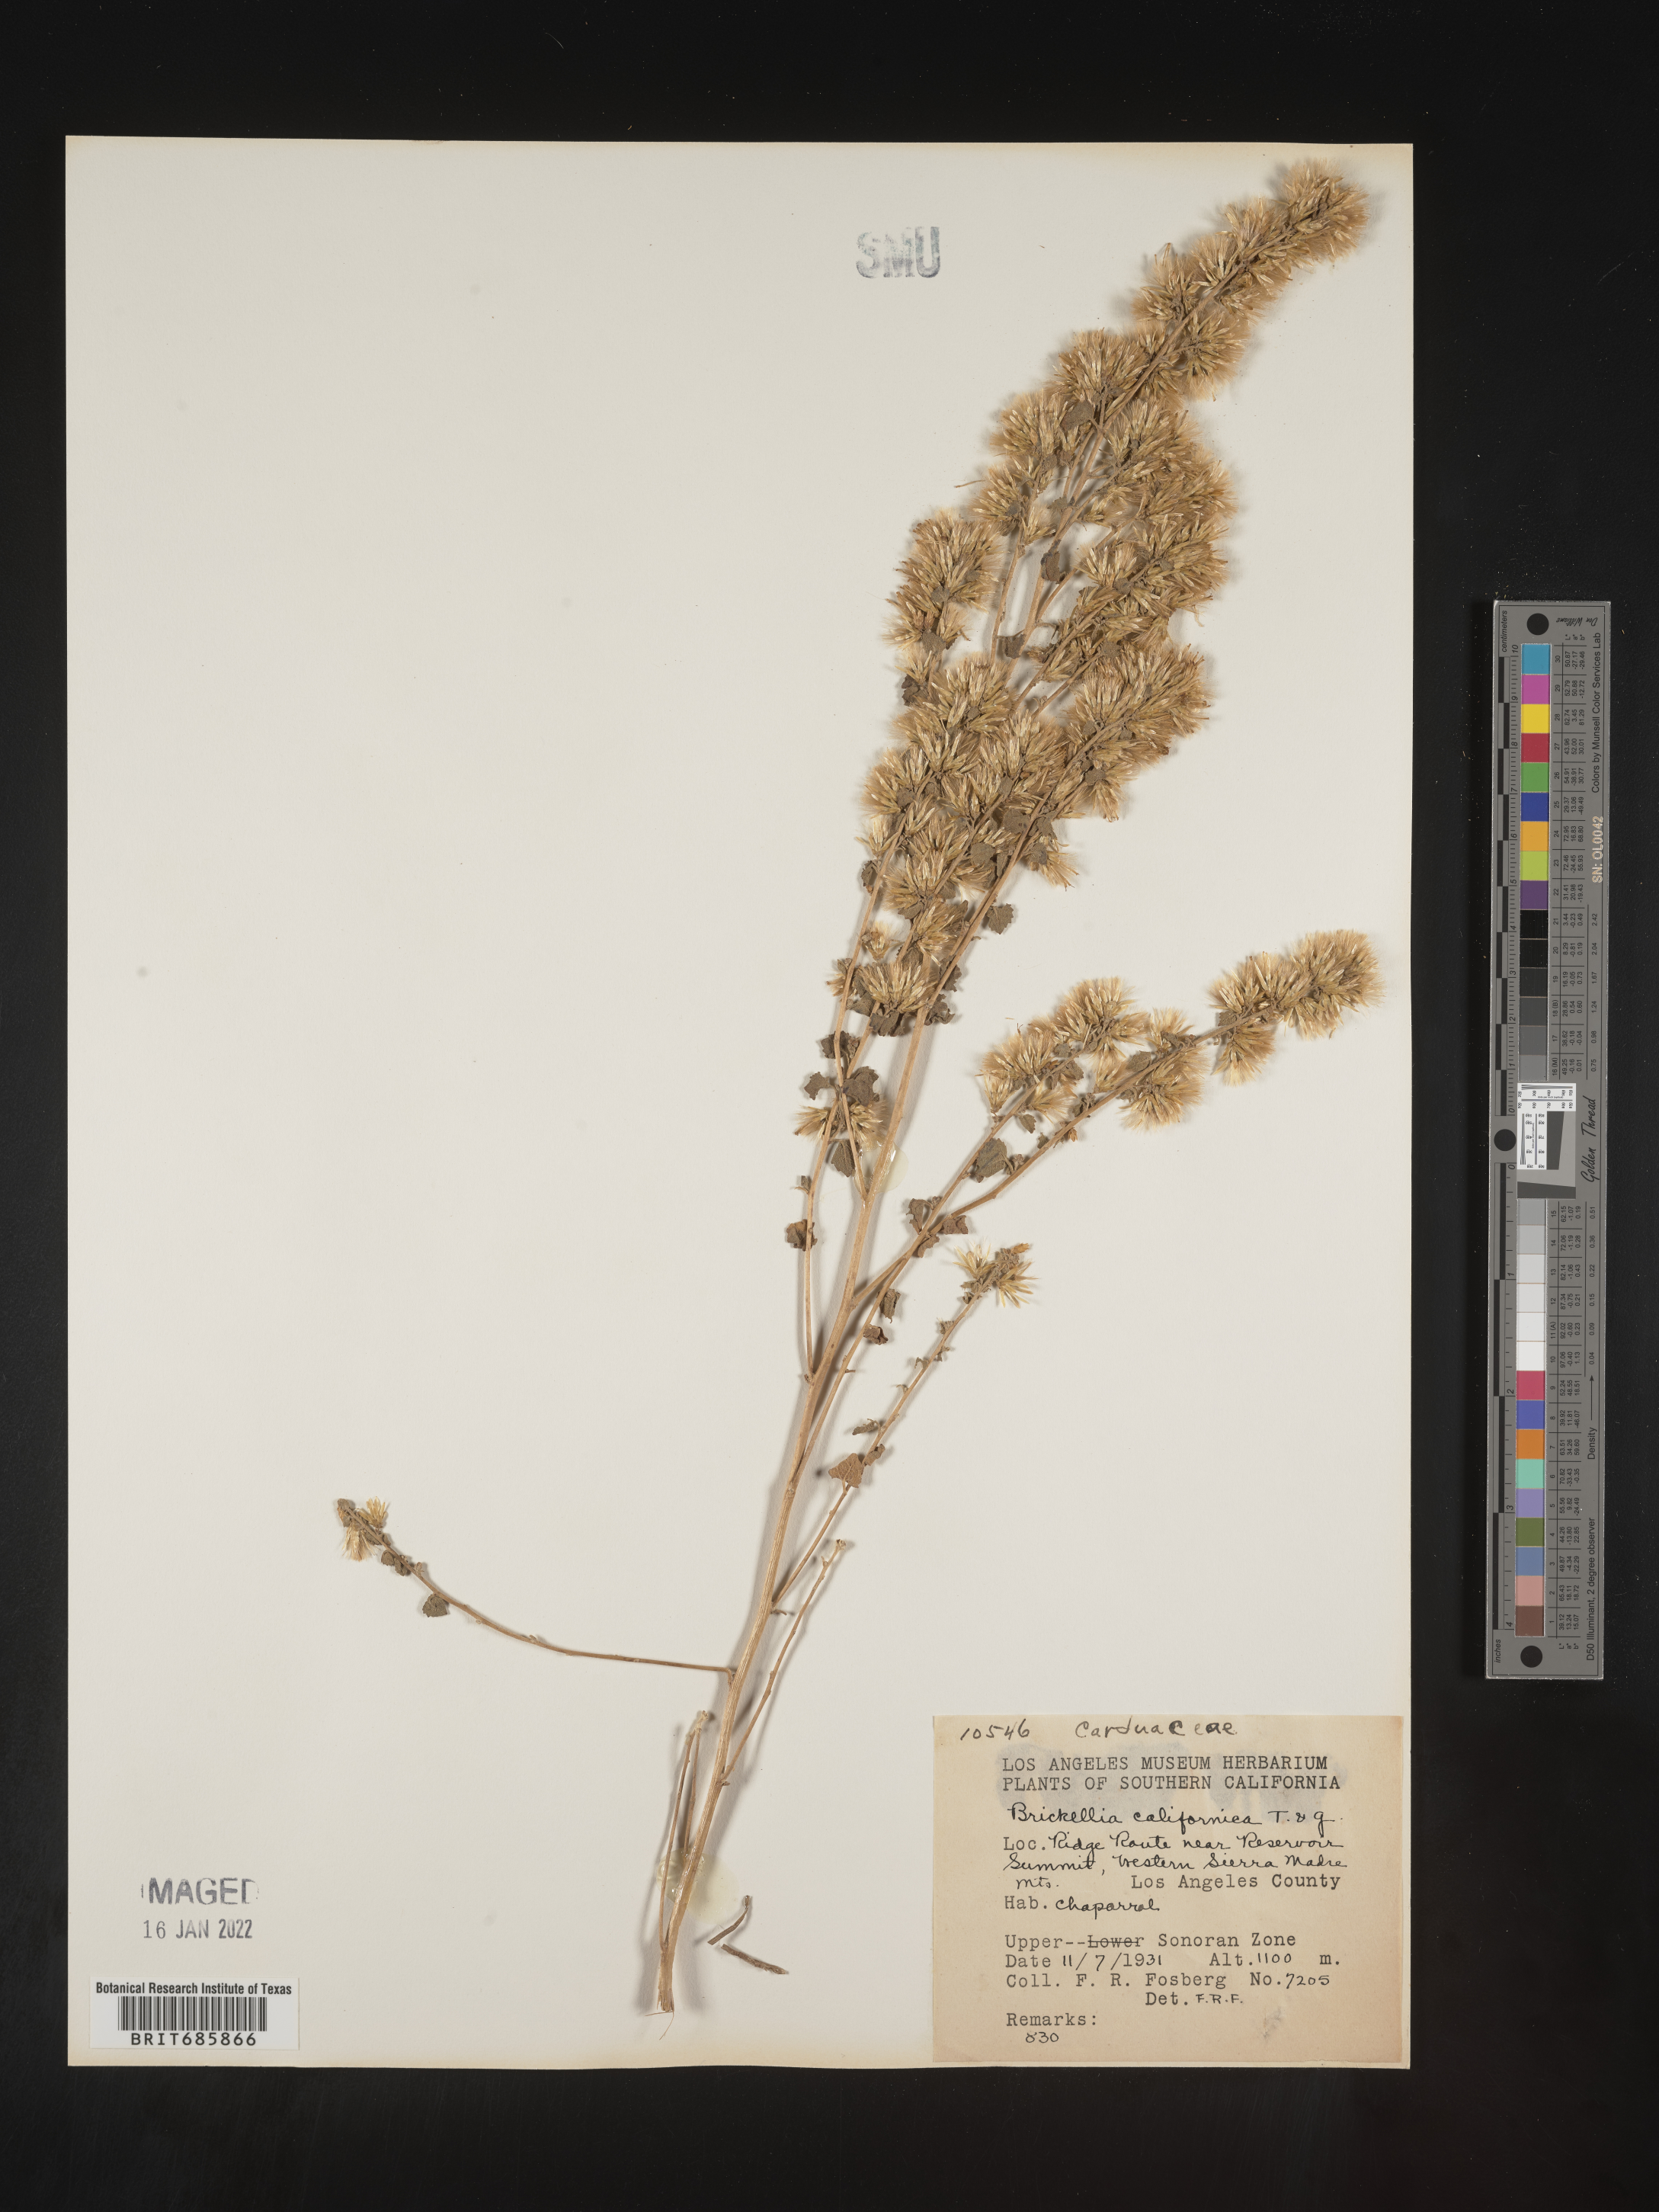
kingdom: Plantae
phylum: Tracheophyta
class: Magnoliopsida
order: Asterales
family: Asteraceae
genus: Brickellia
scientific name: Brickellia californica
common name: California brickellbush
